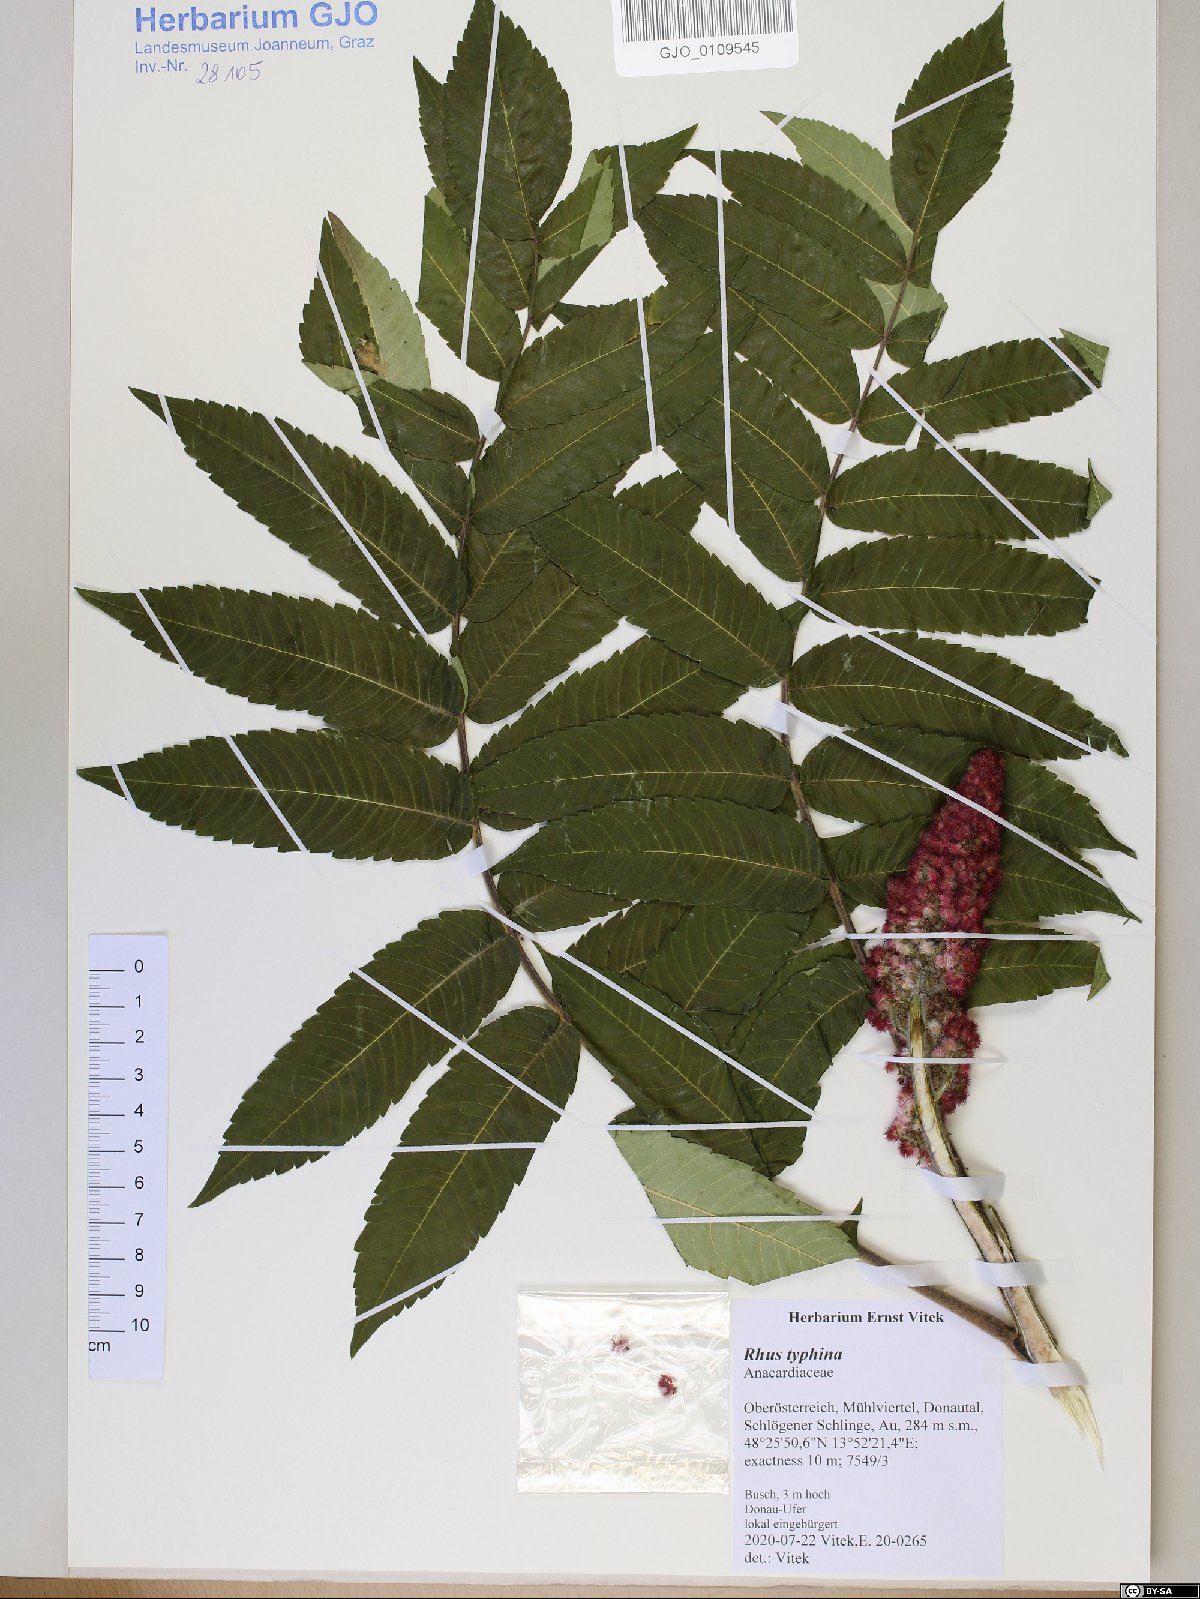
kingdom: Plantae
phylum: Tracheophyta
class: Magnoliopsida
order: Sapindales
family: Anacardiaceae
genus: Rhus
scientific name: Rhus typhina
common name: Staghorn sumac
